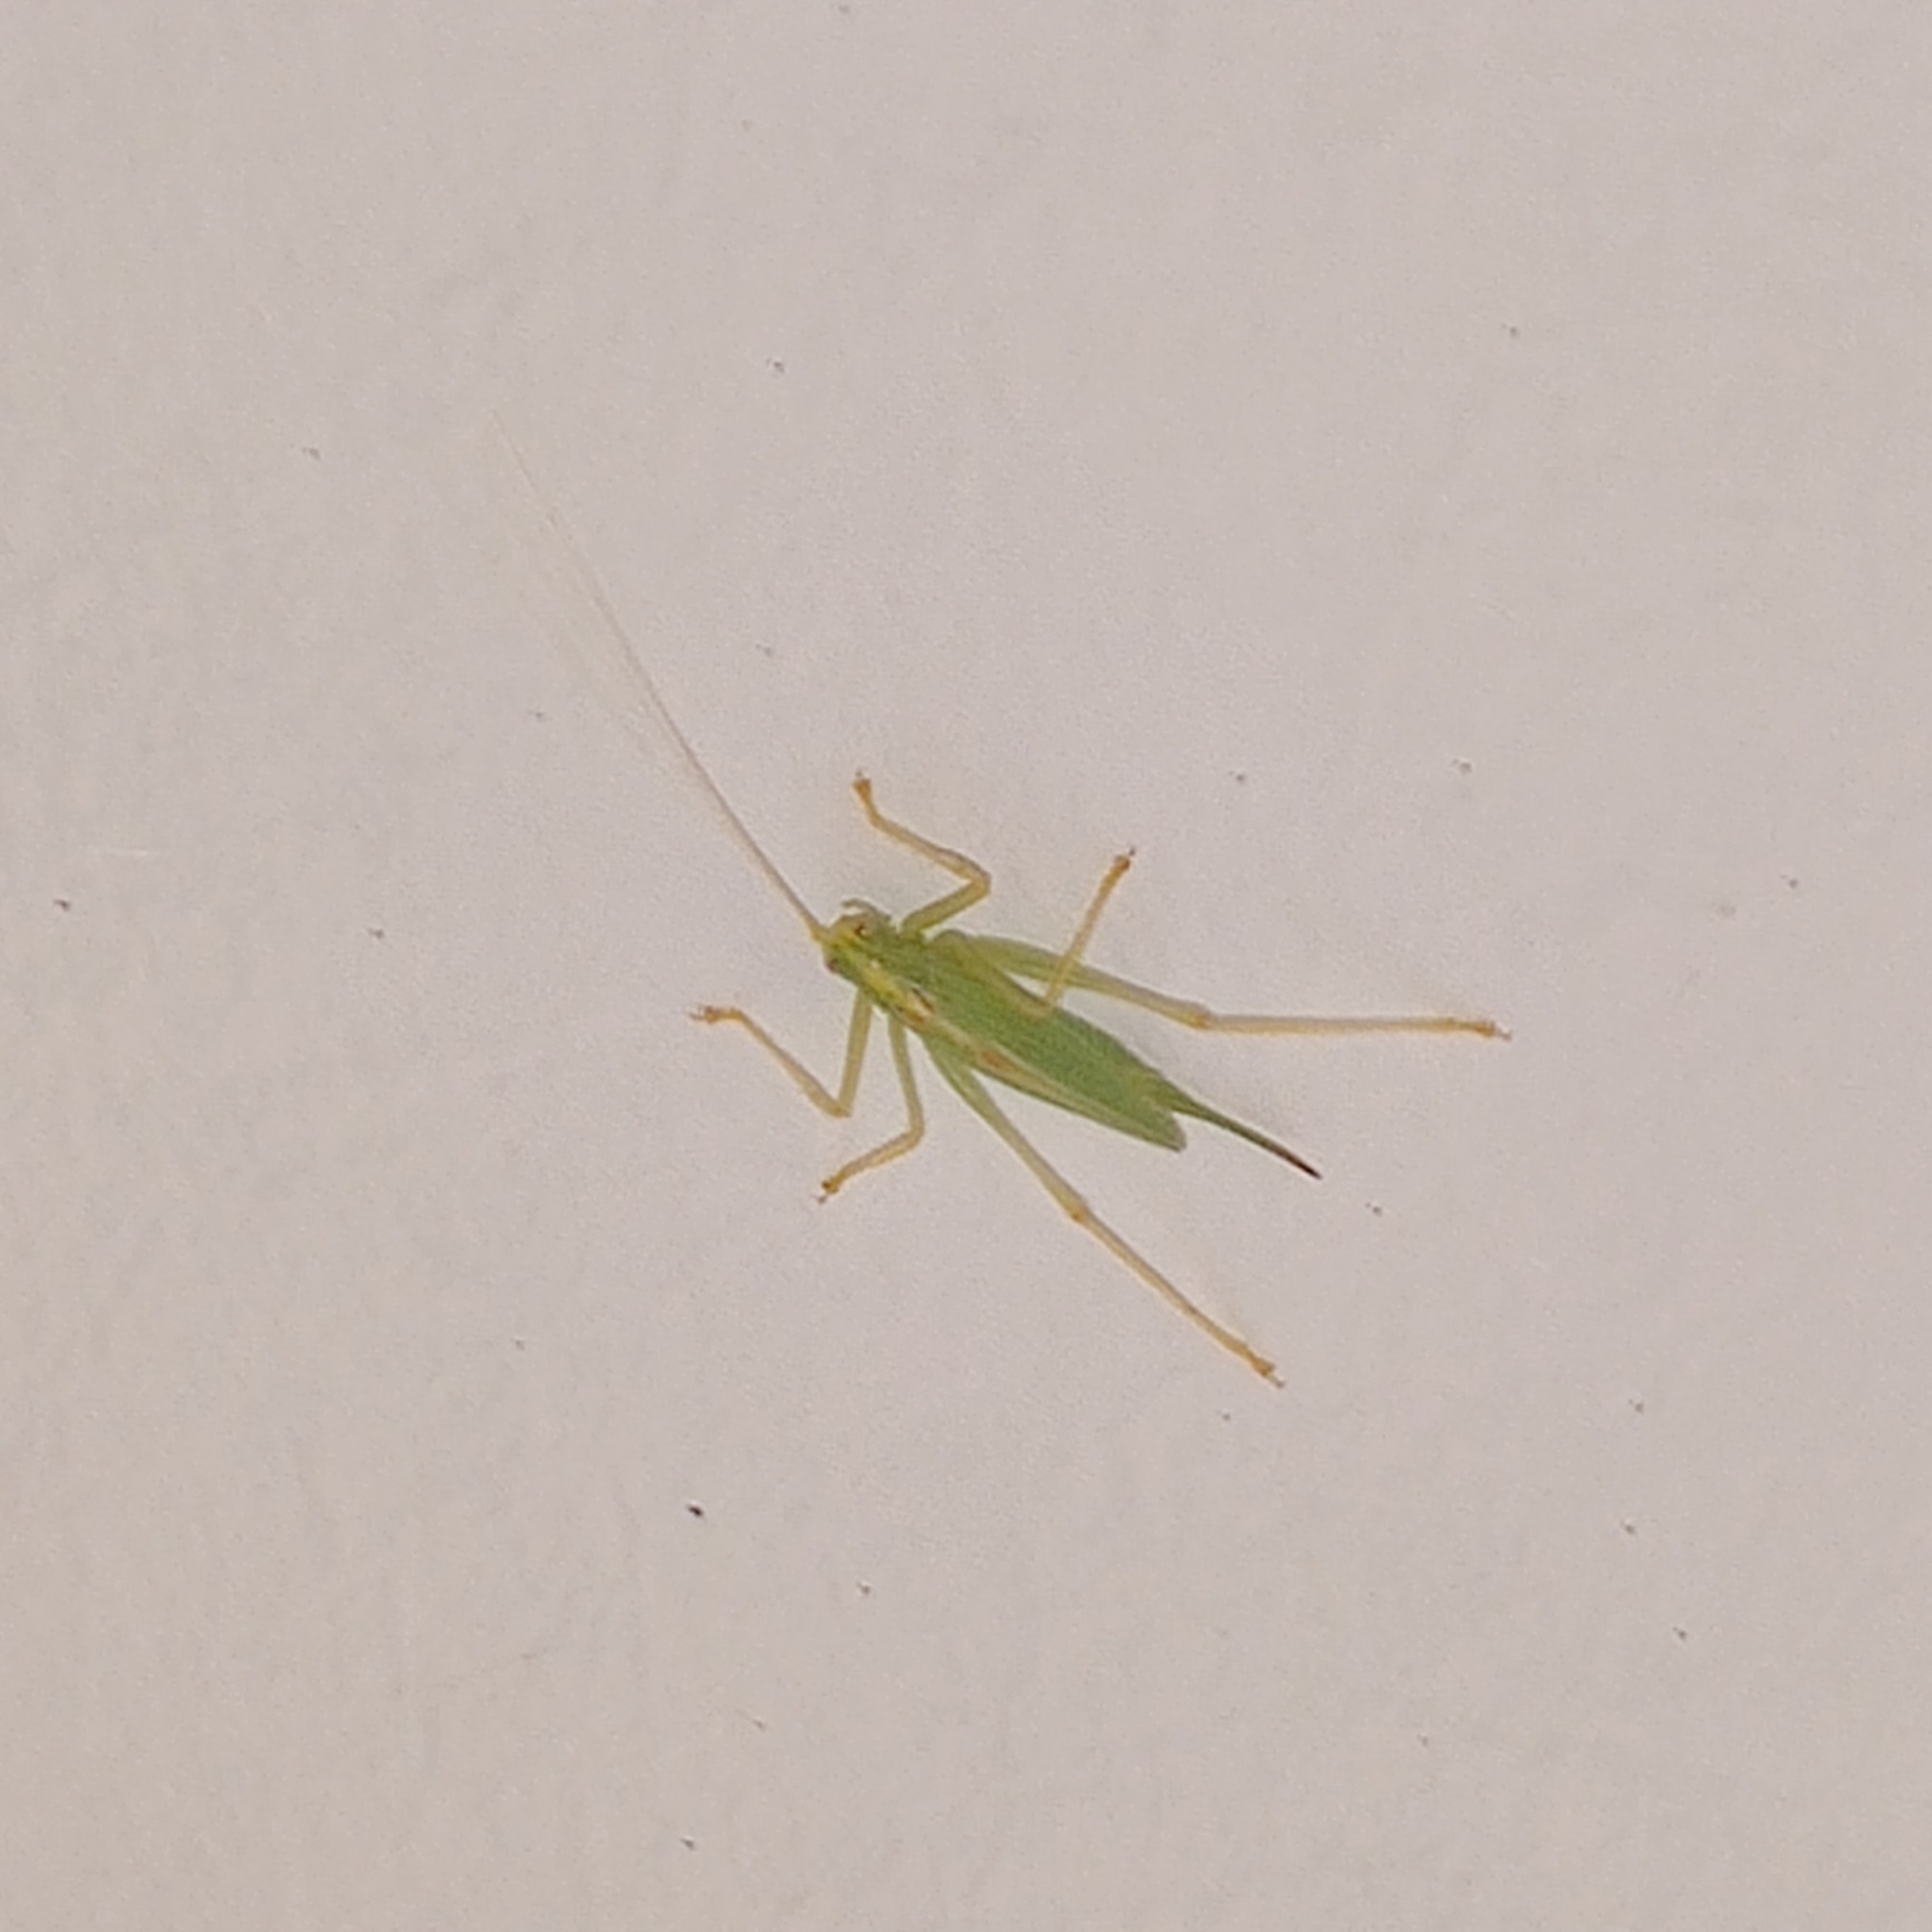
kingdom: Animalia
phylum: Arthropoda
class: Insecta
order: Orthoptera
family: Tettigoniidae
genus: Meconema
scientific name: Meconema thalassinum
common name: Egegræshoppe
